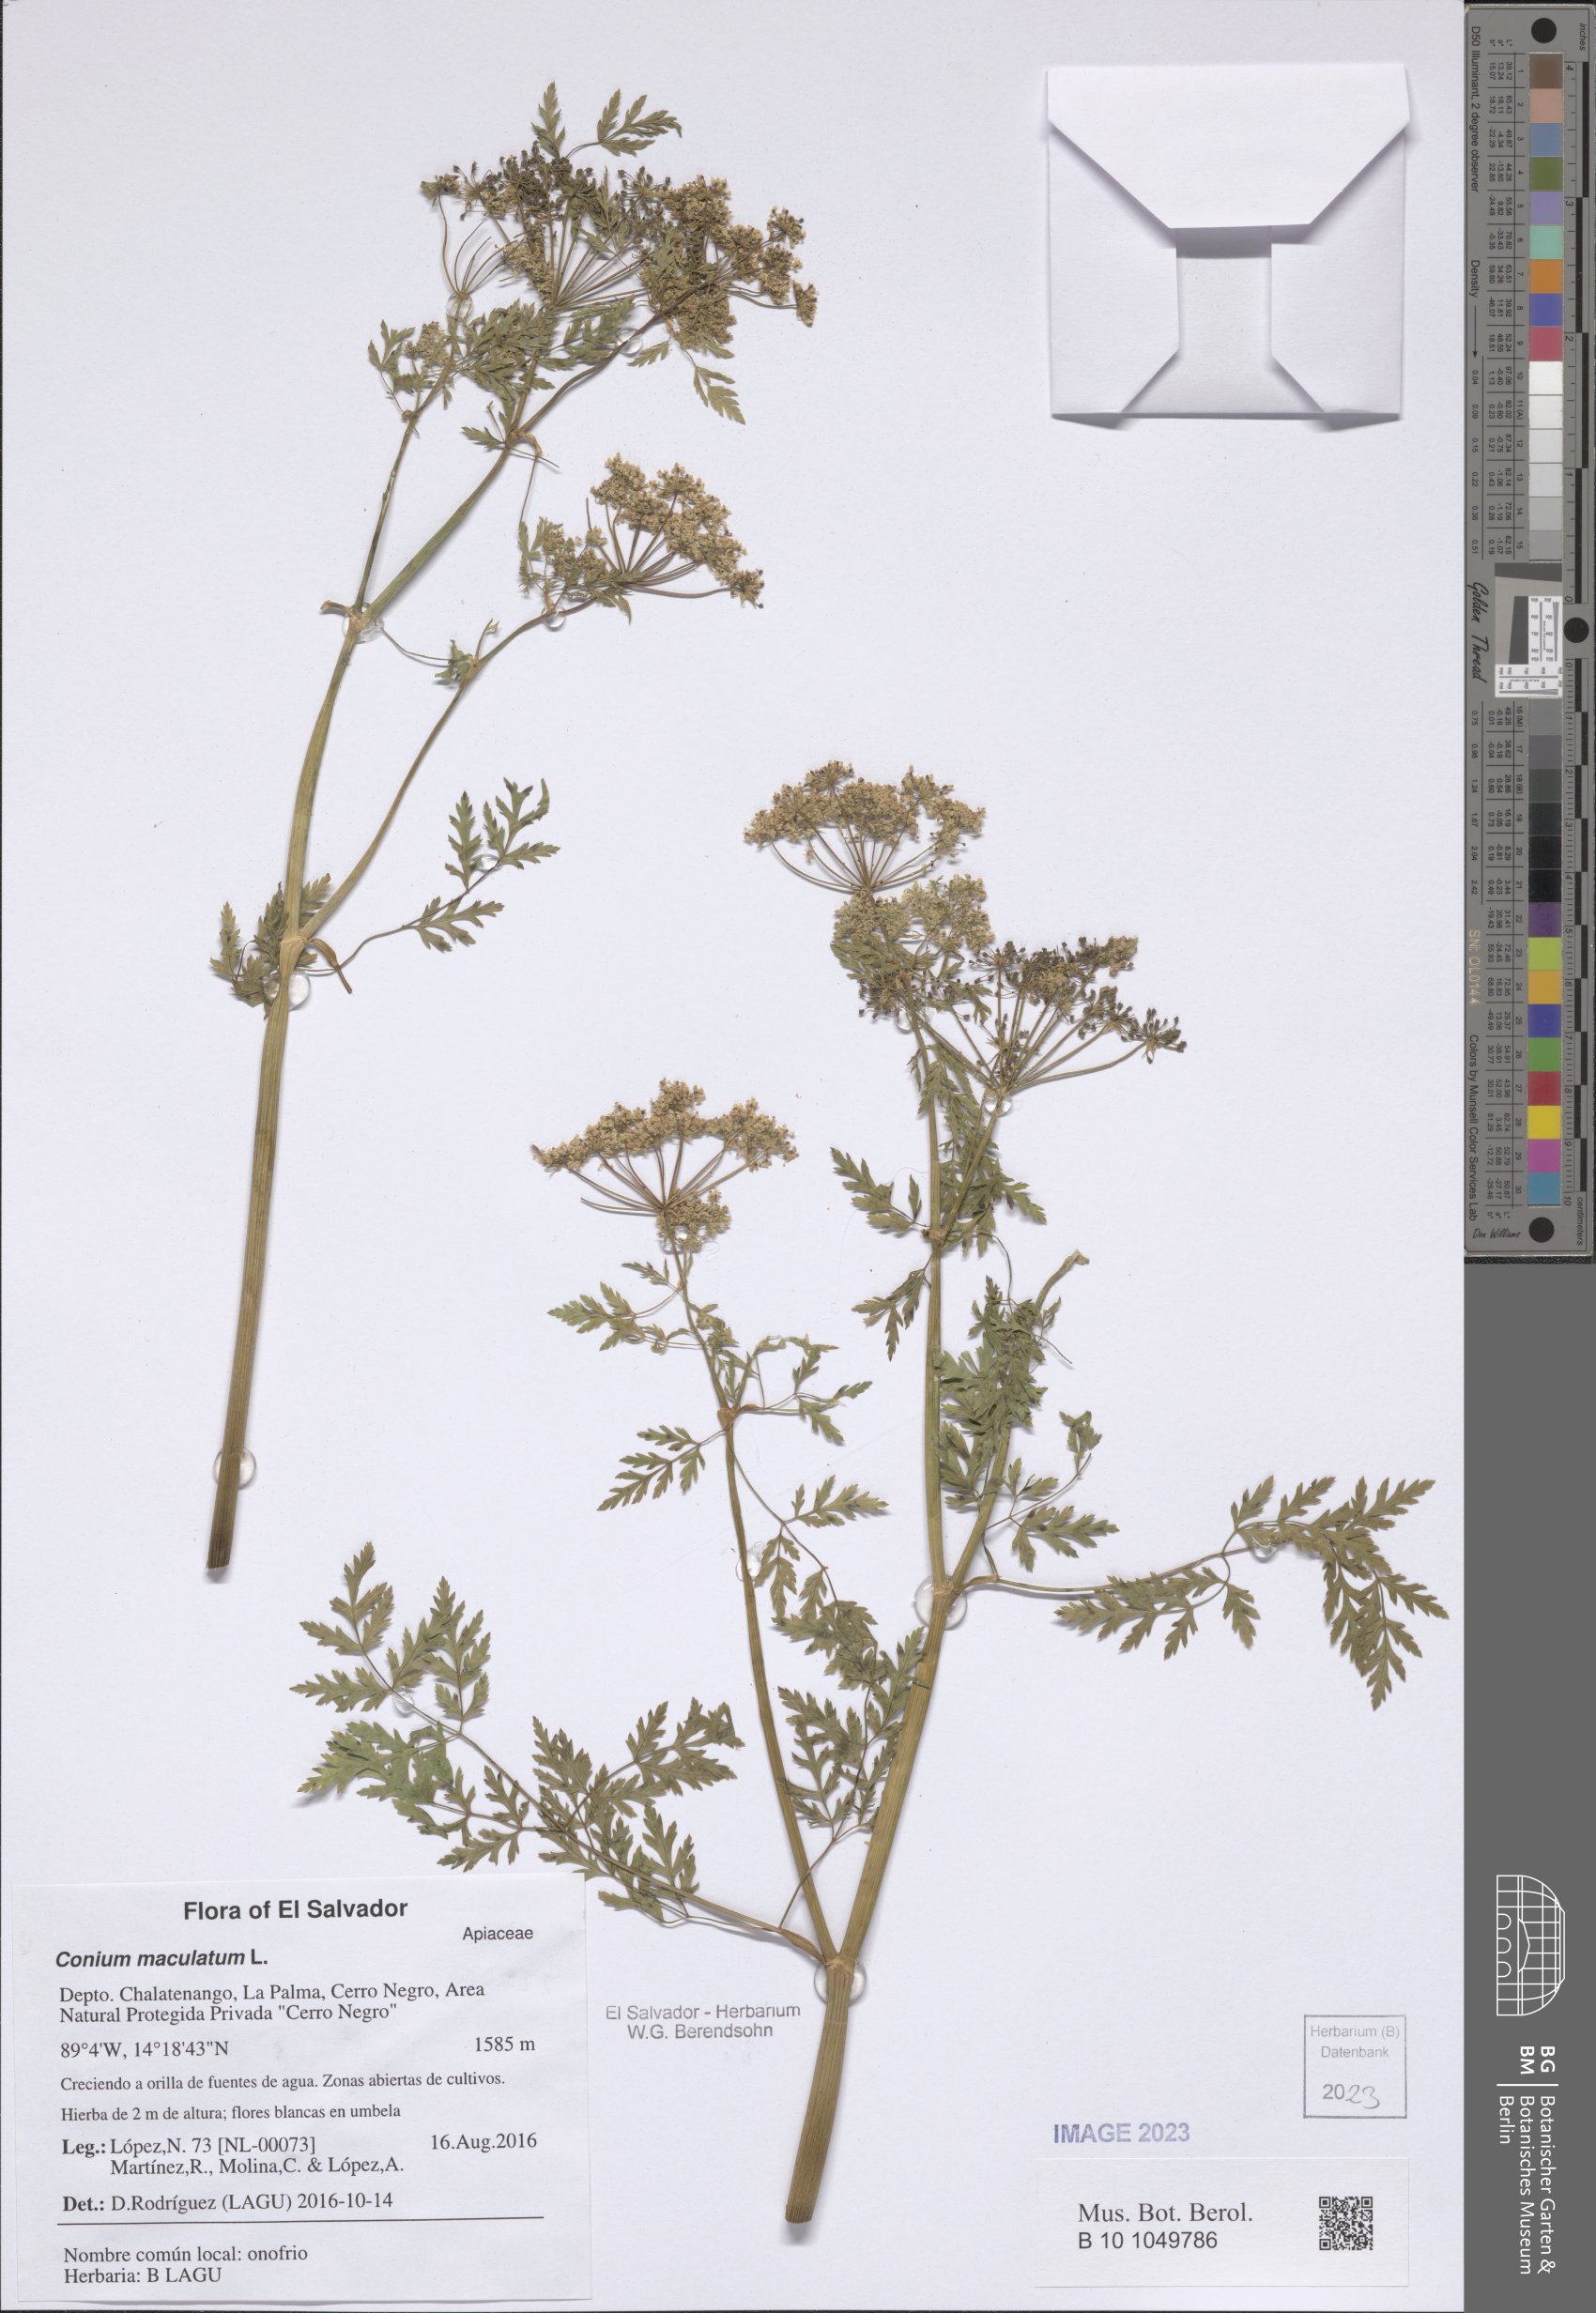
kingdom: Plantae
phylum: Tracheophyta
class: Magnoliopsida
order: Apiales
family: Apiaceae
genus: Conium
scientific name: Conium maculatum
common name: Hemlock
